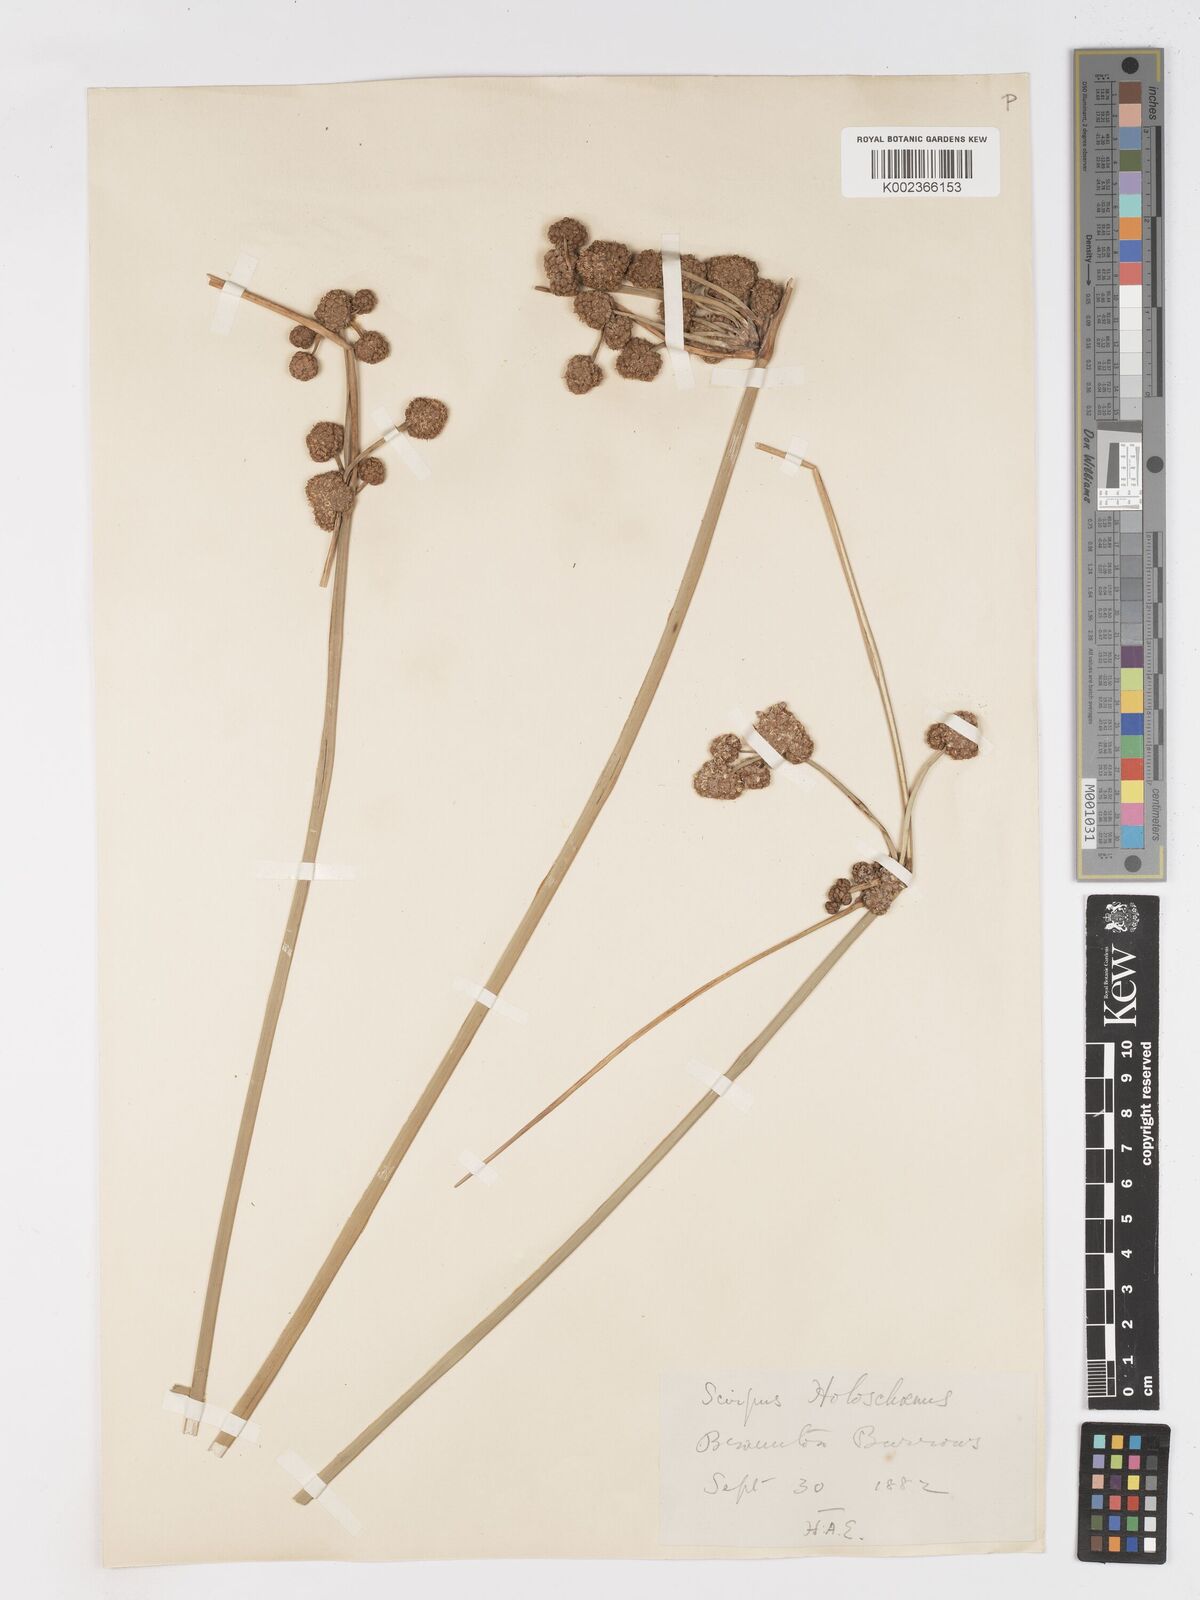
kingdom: Plantae
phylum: Tracheophyta
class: Liliopsida
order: Poales
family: Cyperaceae
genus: Scirpoides
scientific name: Scirpoides holoschoenus
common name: Round-headed club-rush
